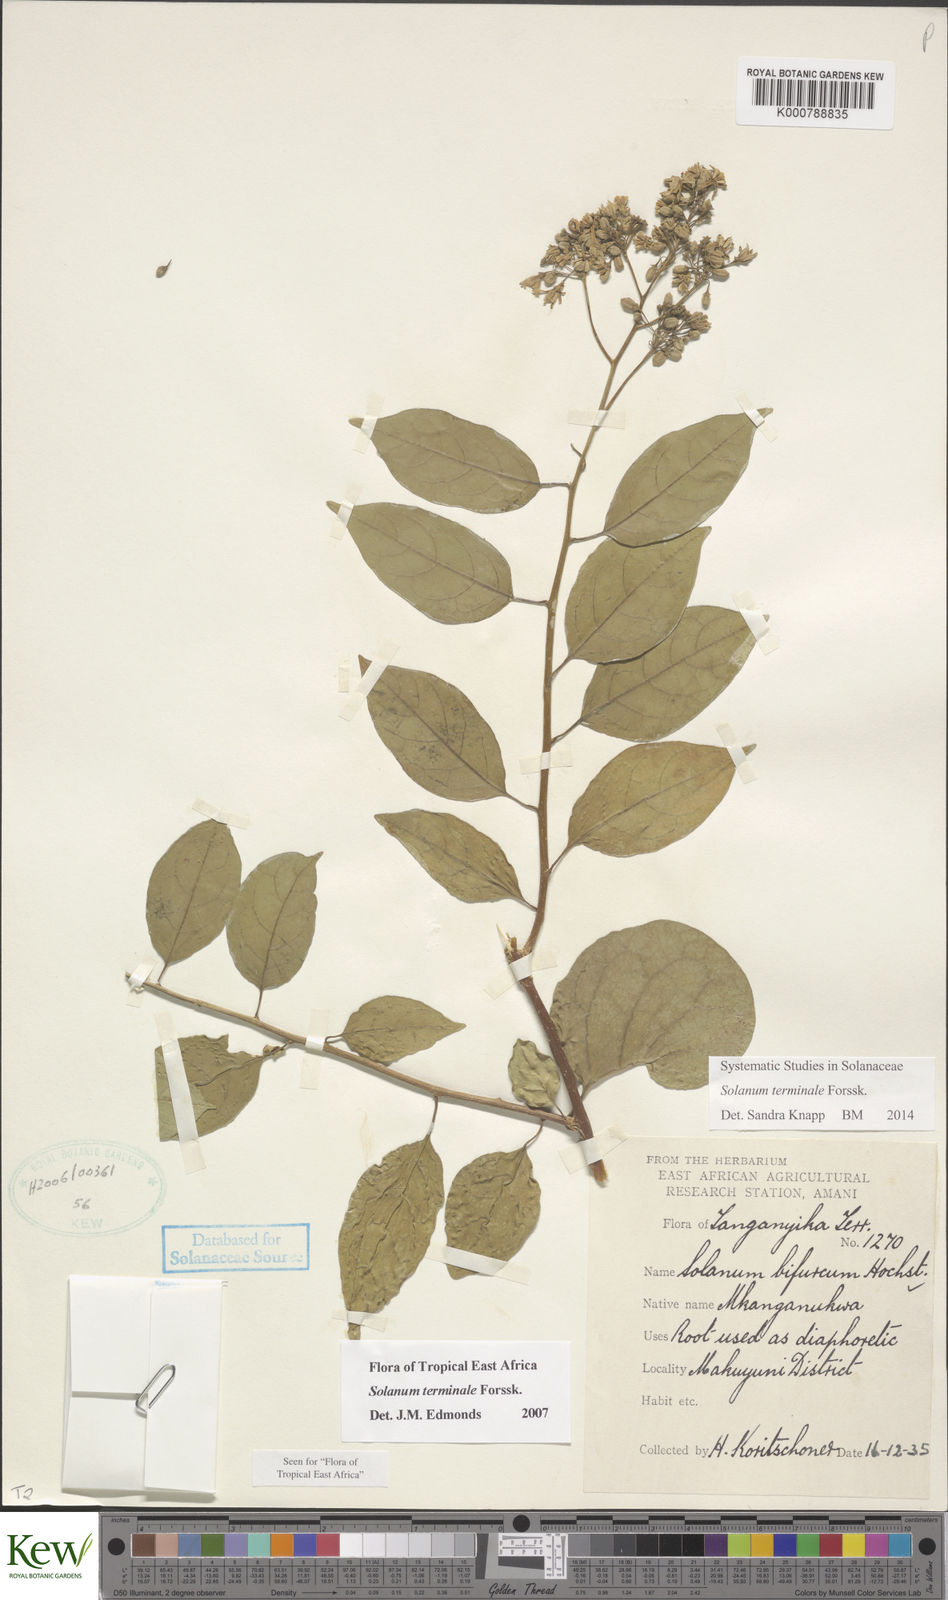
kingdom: Plantae
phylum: Tracheophyta
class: Magnoliopsida
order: Solanales
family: Solanaceae
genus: Solanum
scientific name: Solanum terminale
